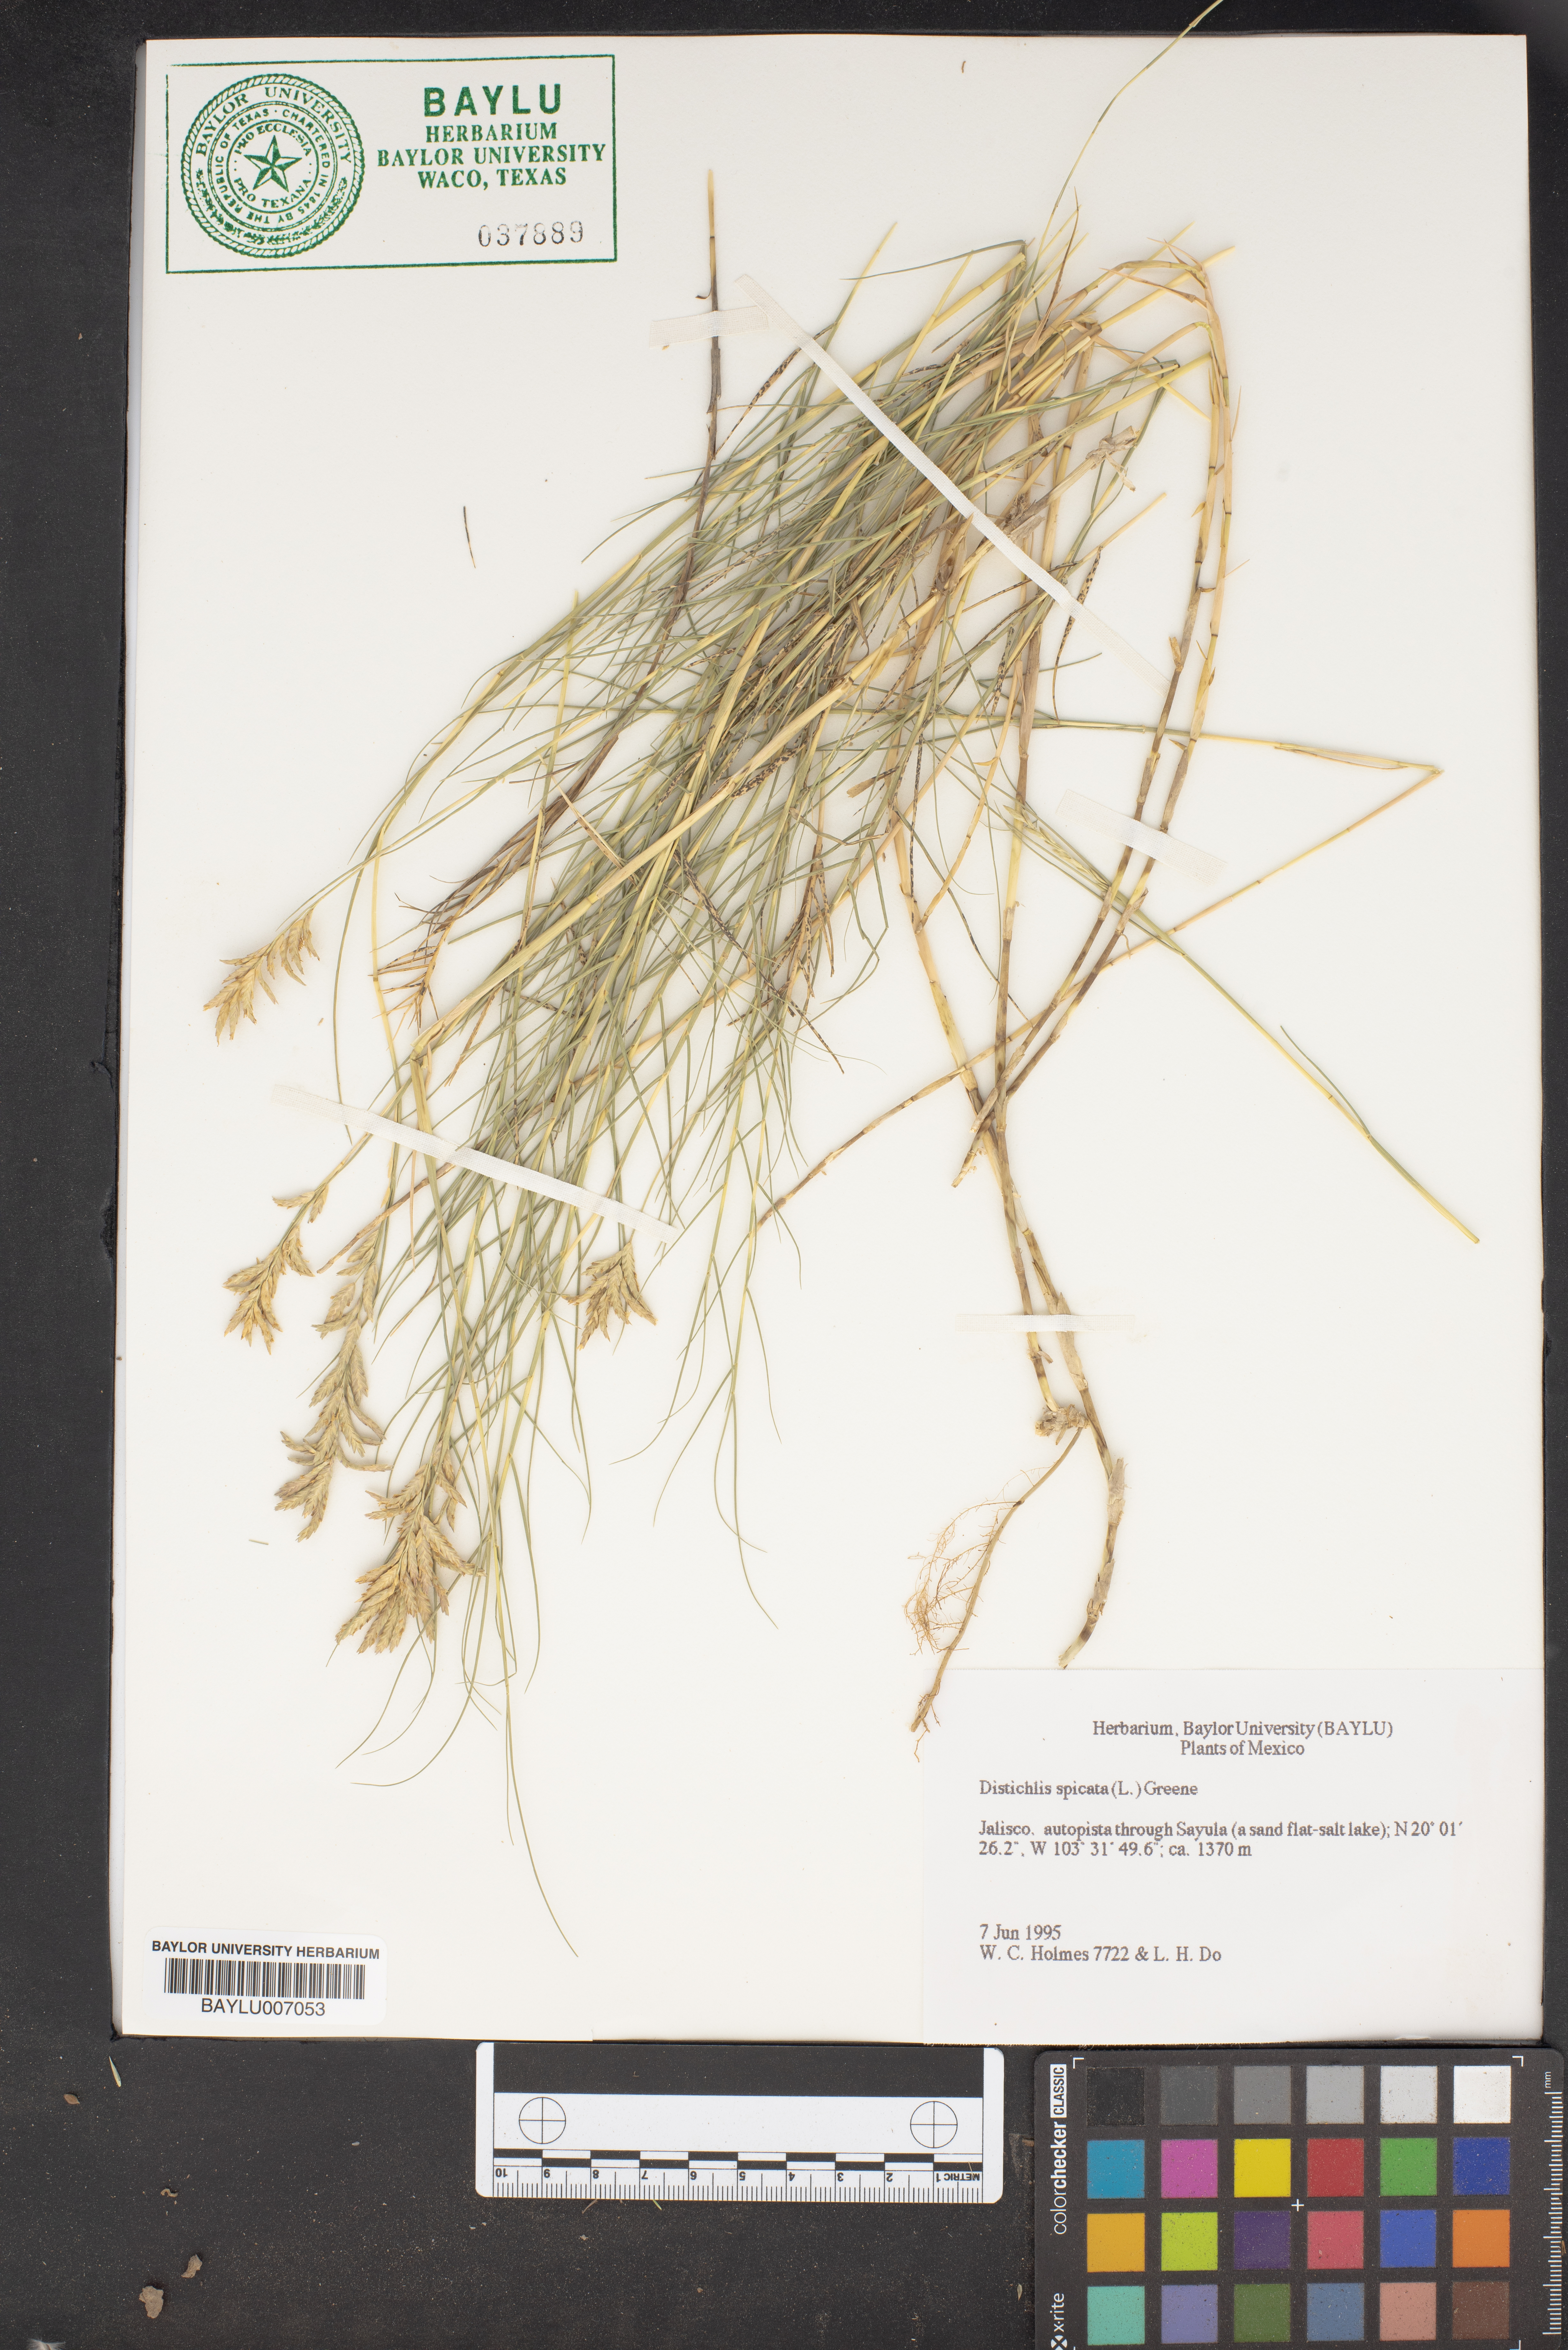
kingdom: Plantae
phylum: Tracheophyta
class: Liliopsida
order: Poales
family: Poaceae
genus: Distichlis
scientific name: Distichlis spicata
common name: Saltgrass
